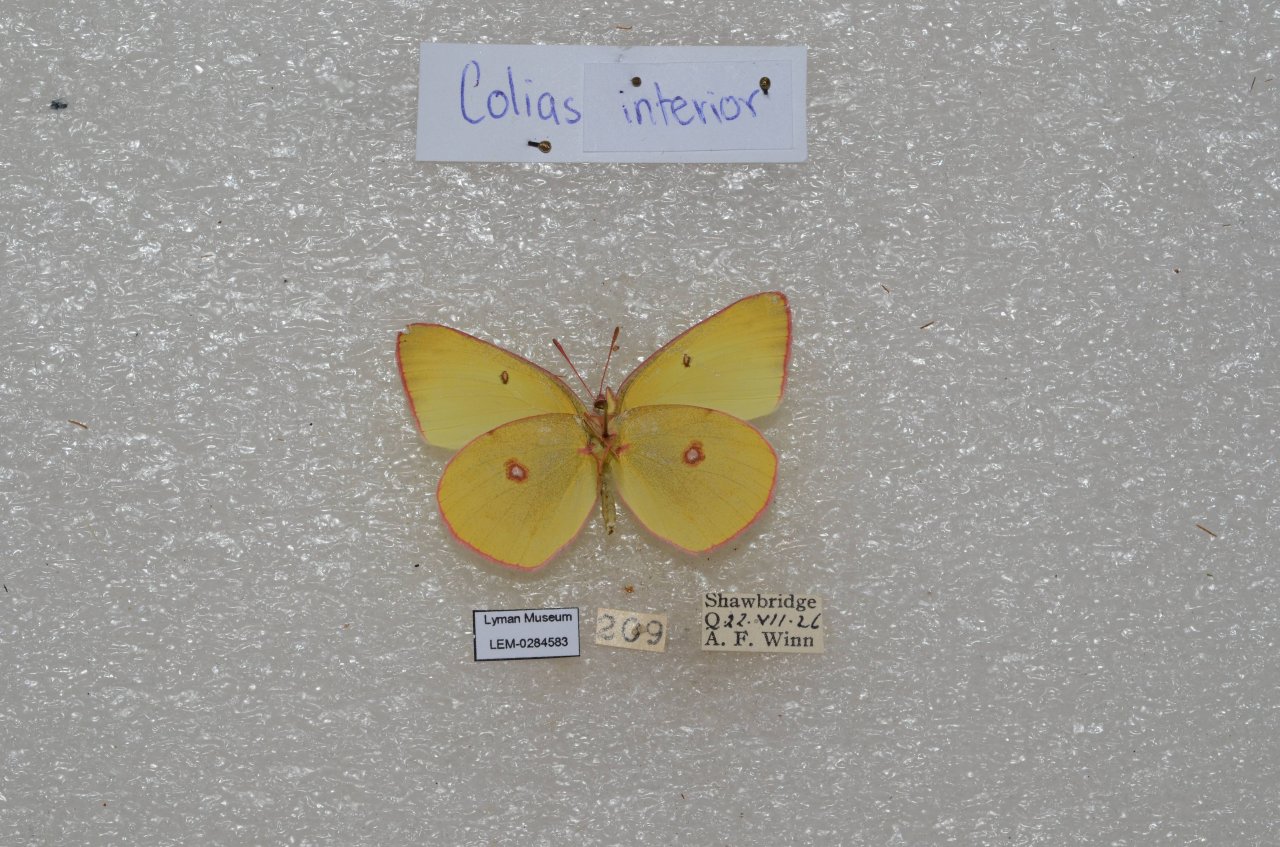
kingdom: Animalia
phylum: Arthropoda
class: Insecta
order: Lepidoptera
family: Pieridae
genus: Colias
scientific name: Colias interior
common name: Pink-edged Sulphur
